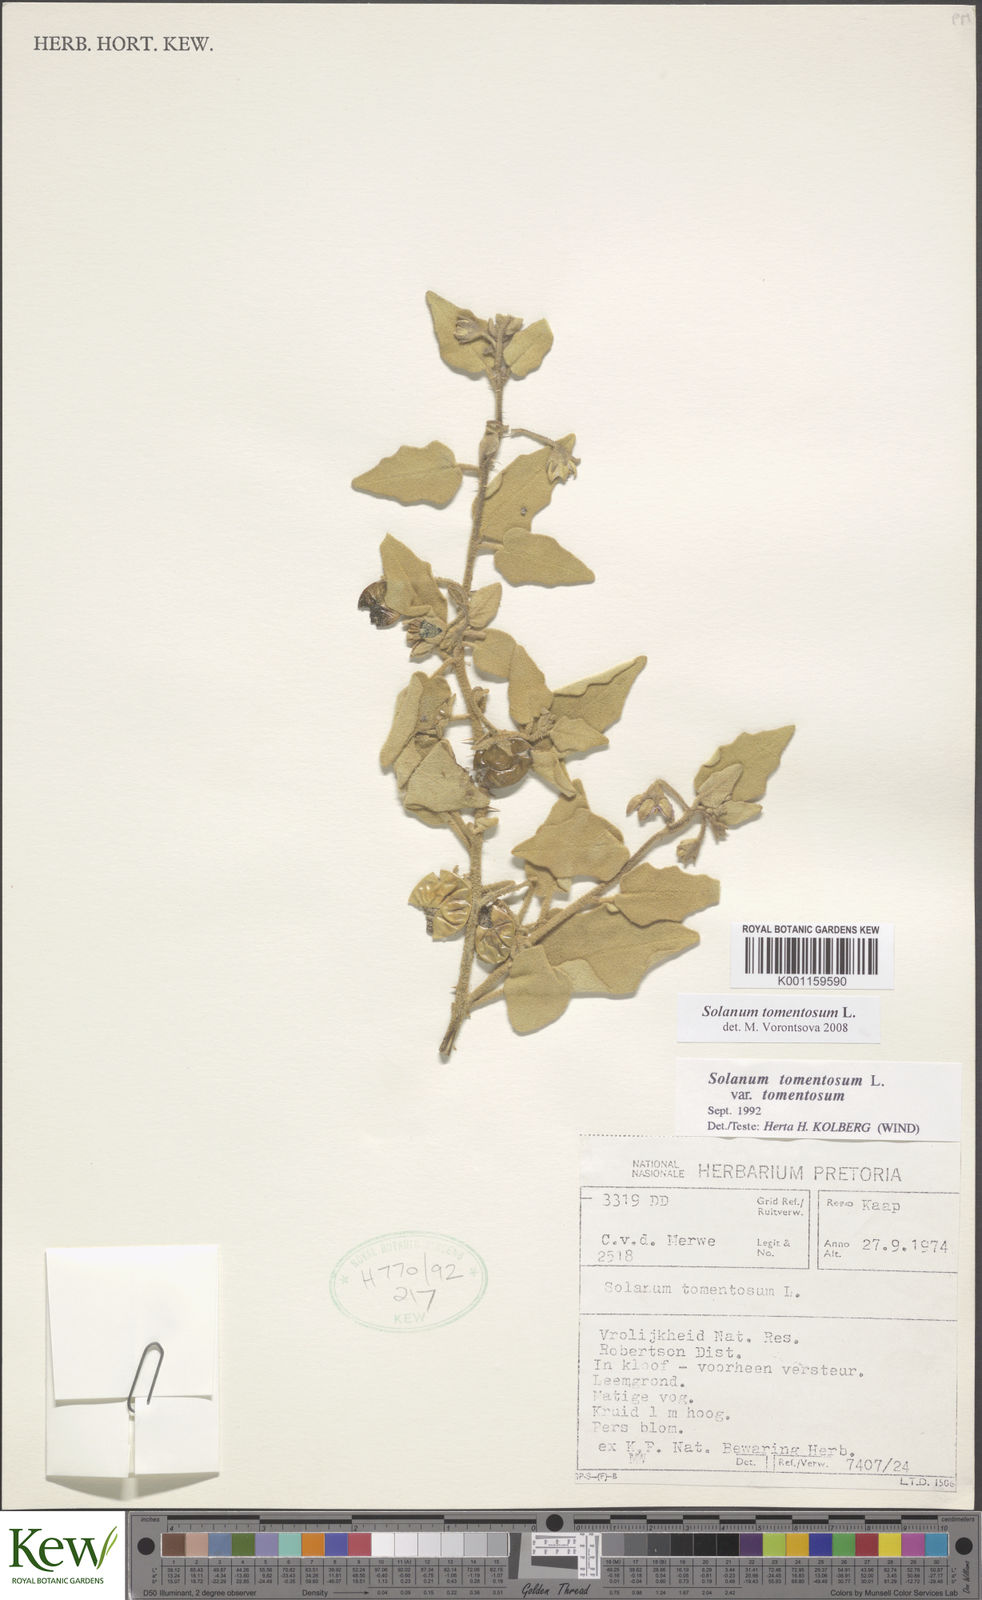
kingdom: Plantae
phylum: Tracheophyta
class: Magnoliopsida
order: Solanales
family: Solanaceae
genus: Solanum
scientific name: Solanum tomentosum
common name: Wild aubergine
